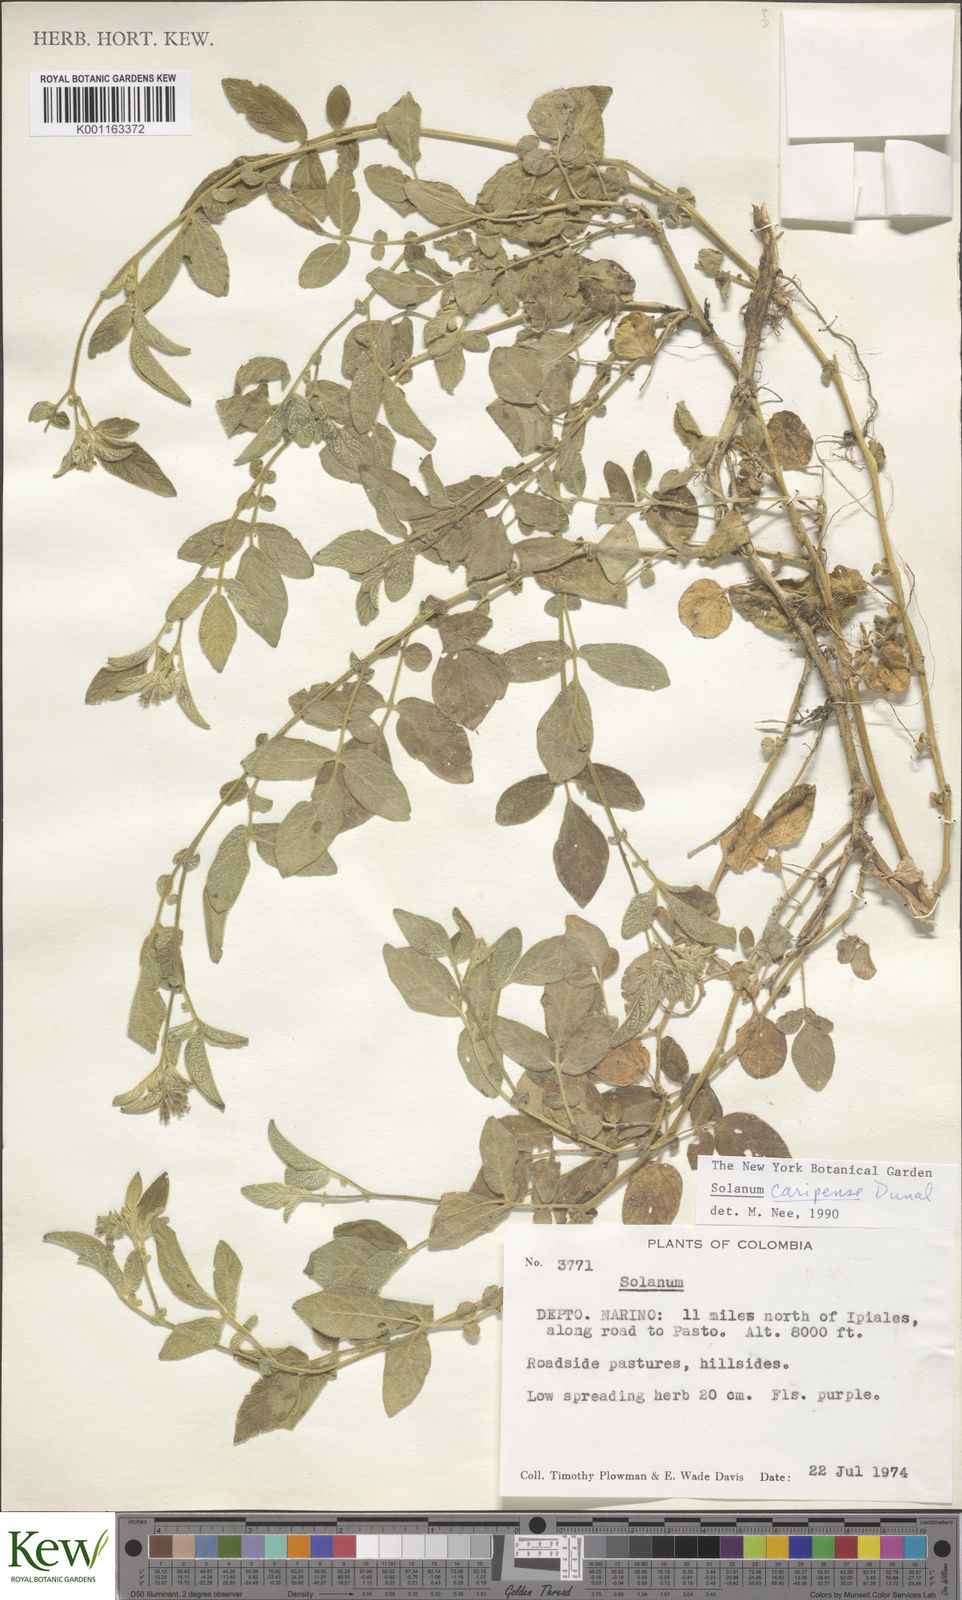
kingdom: Plantae
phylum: Tracheophyta
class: Magnoliopsida
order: Solanales
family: Solanaceae
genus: Solanum
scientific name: Solanum caripense
